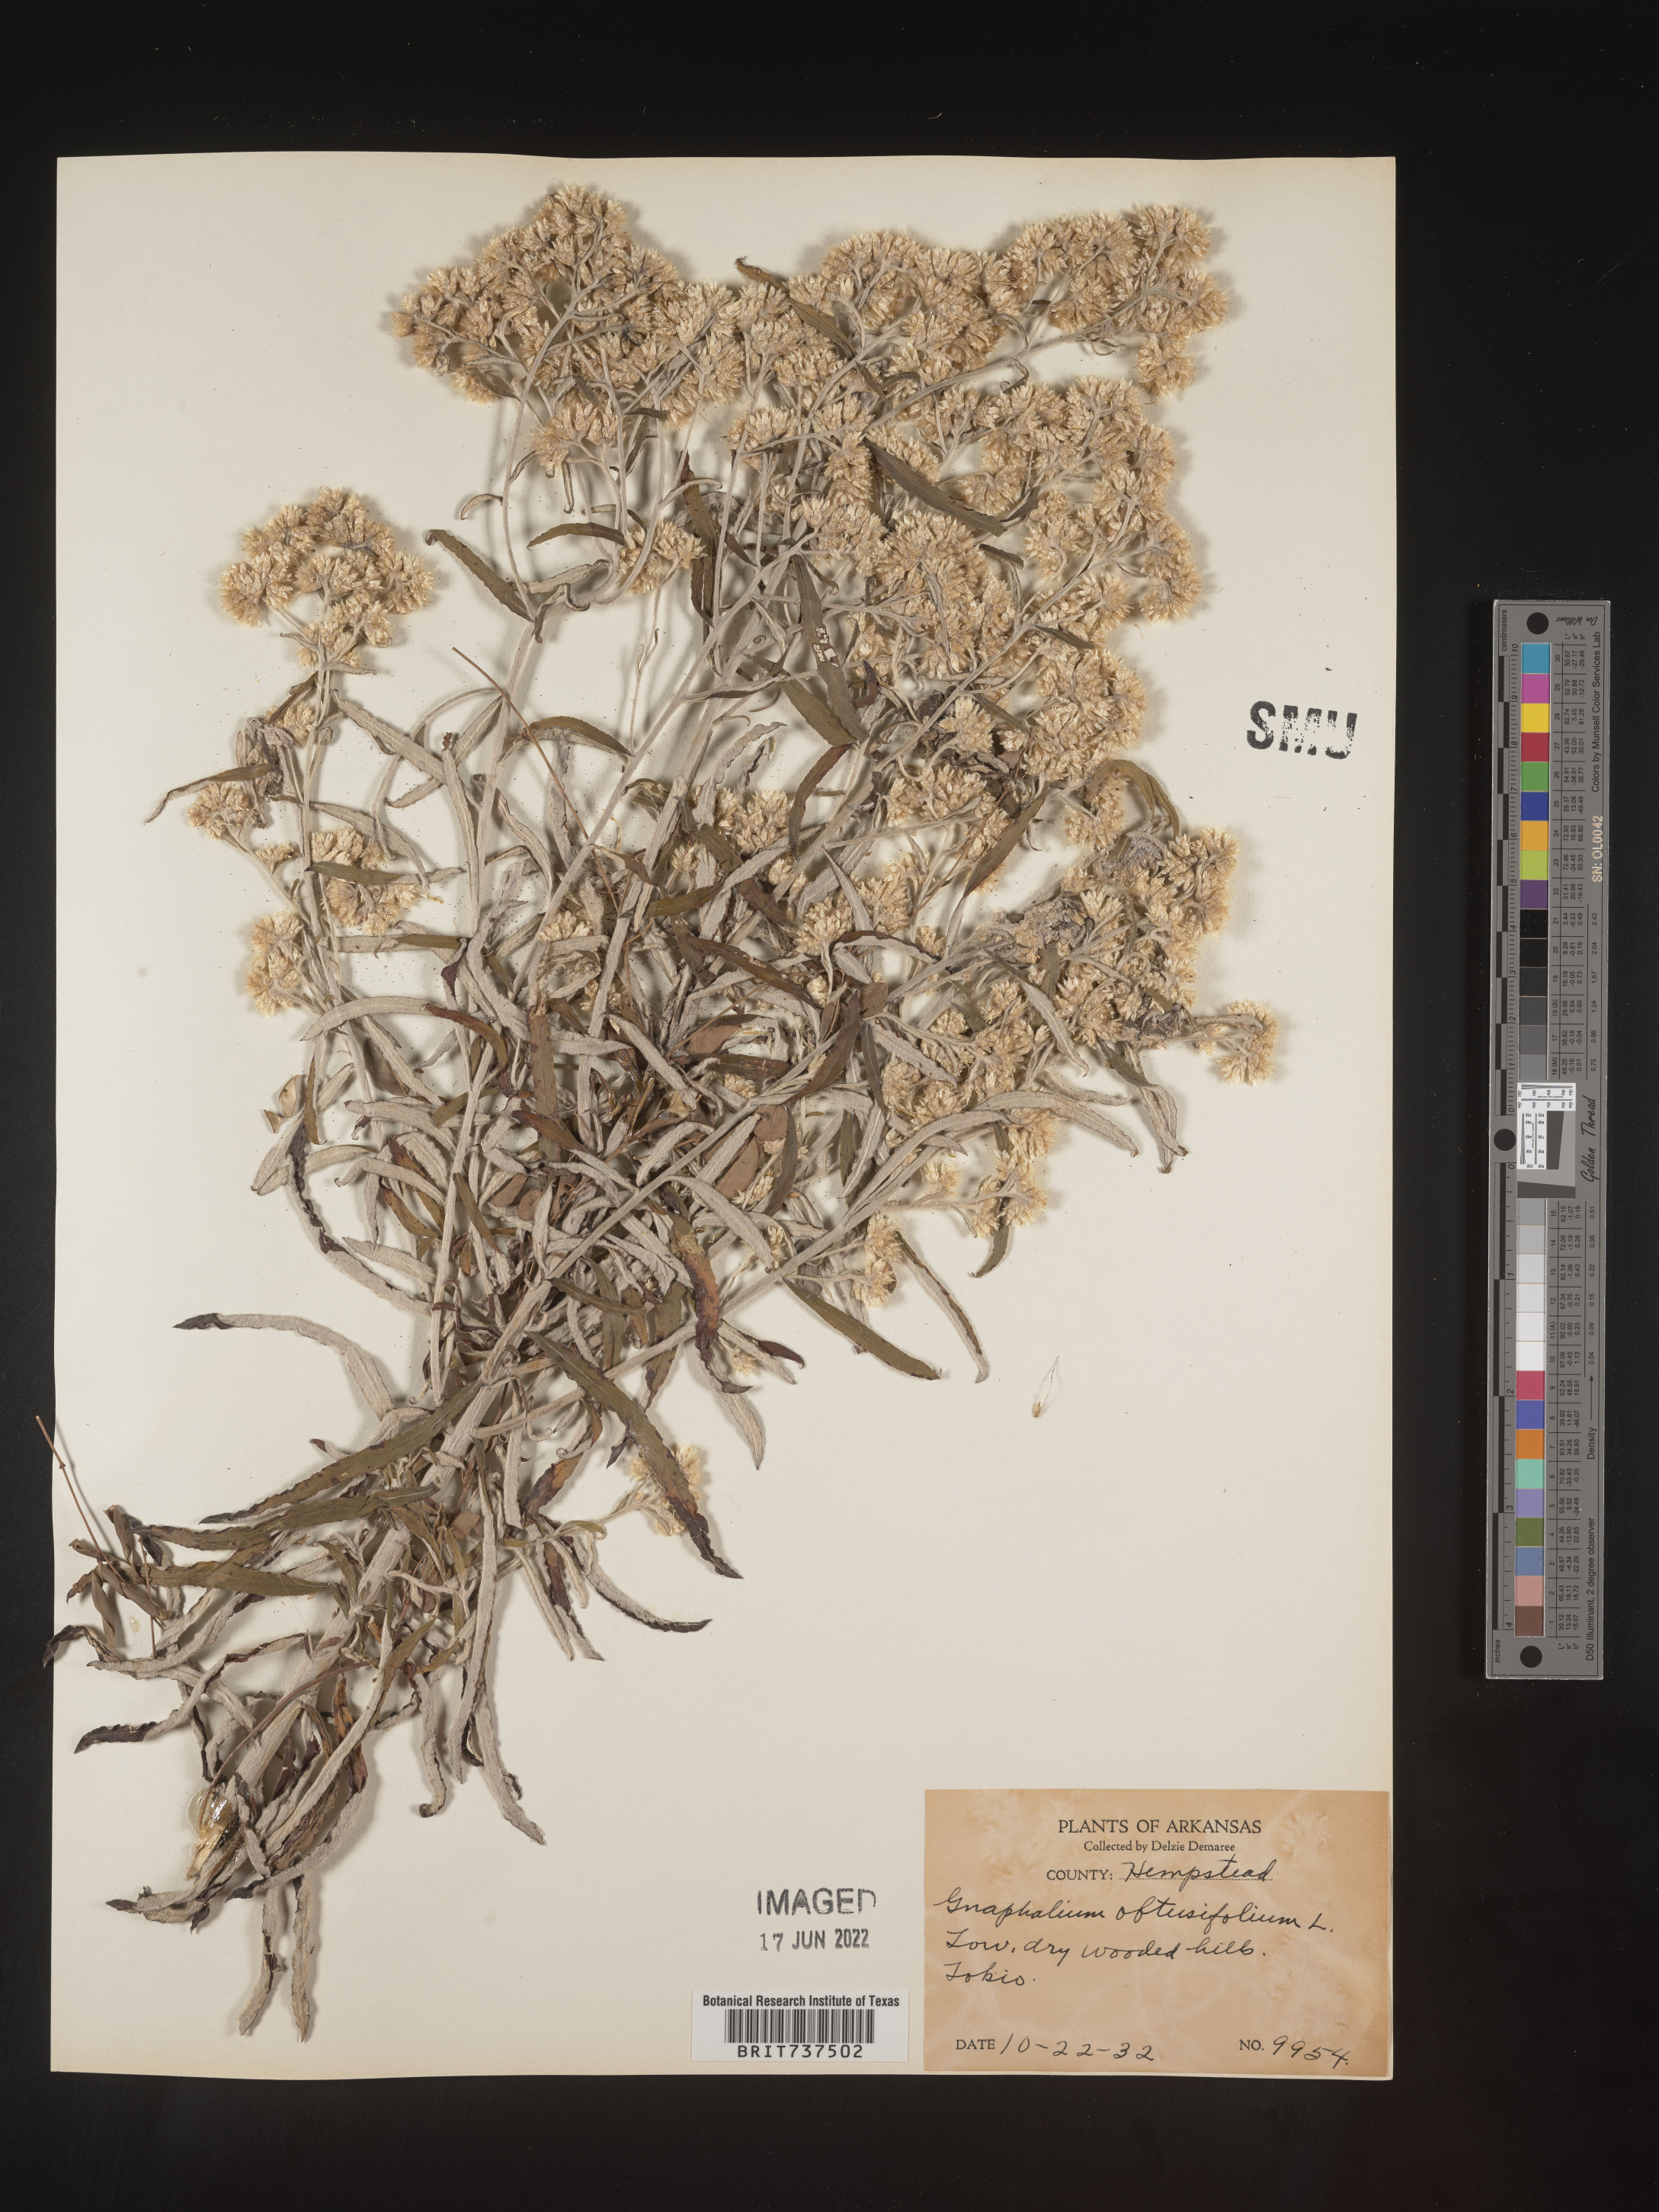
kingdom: Plantae
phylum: Tracheophyta
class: Magnoliopsida
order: Asterales
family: Asteraceae
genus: Pseudognaphalium
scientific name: Pseudognaphalium obtusifolium
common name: Eastern rabbit-tobacco
